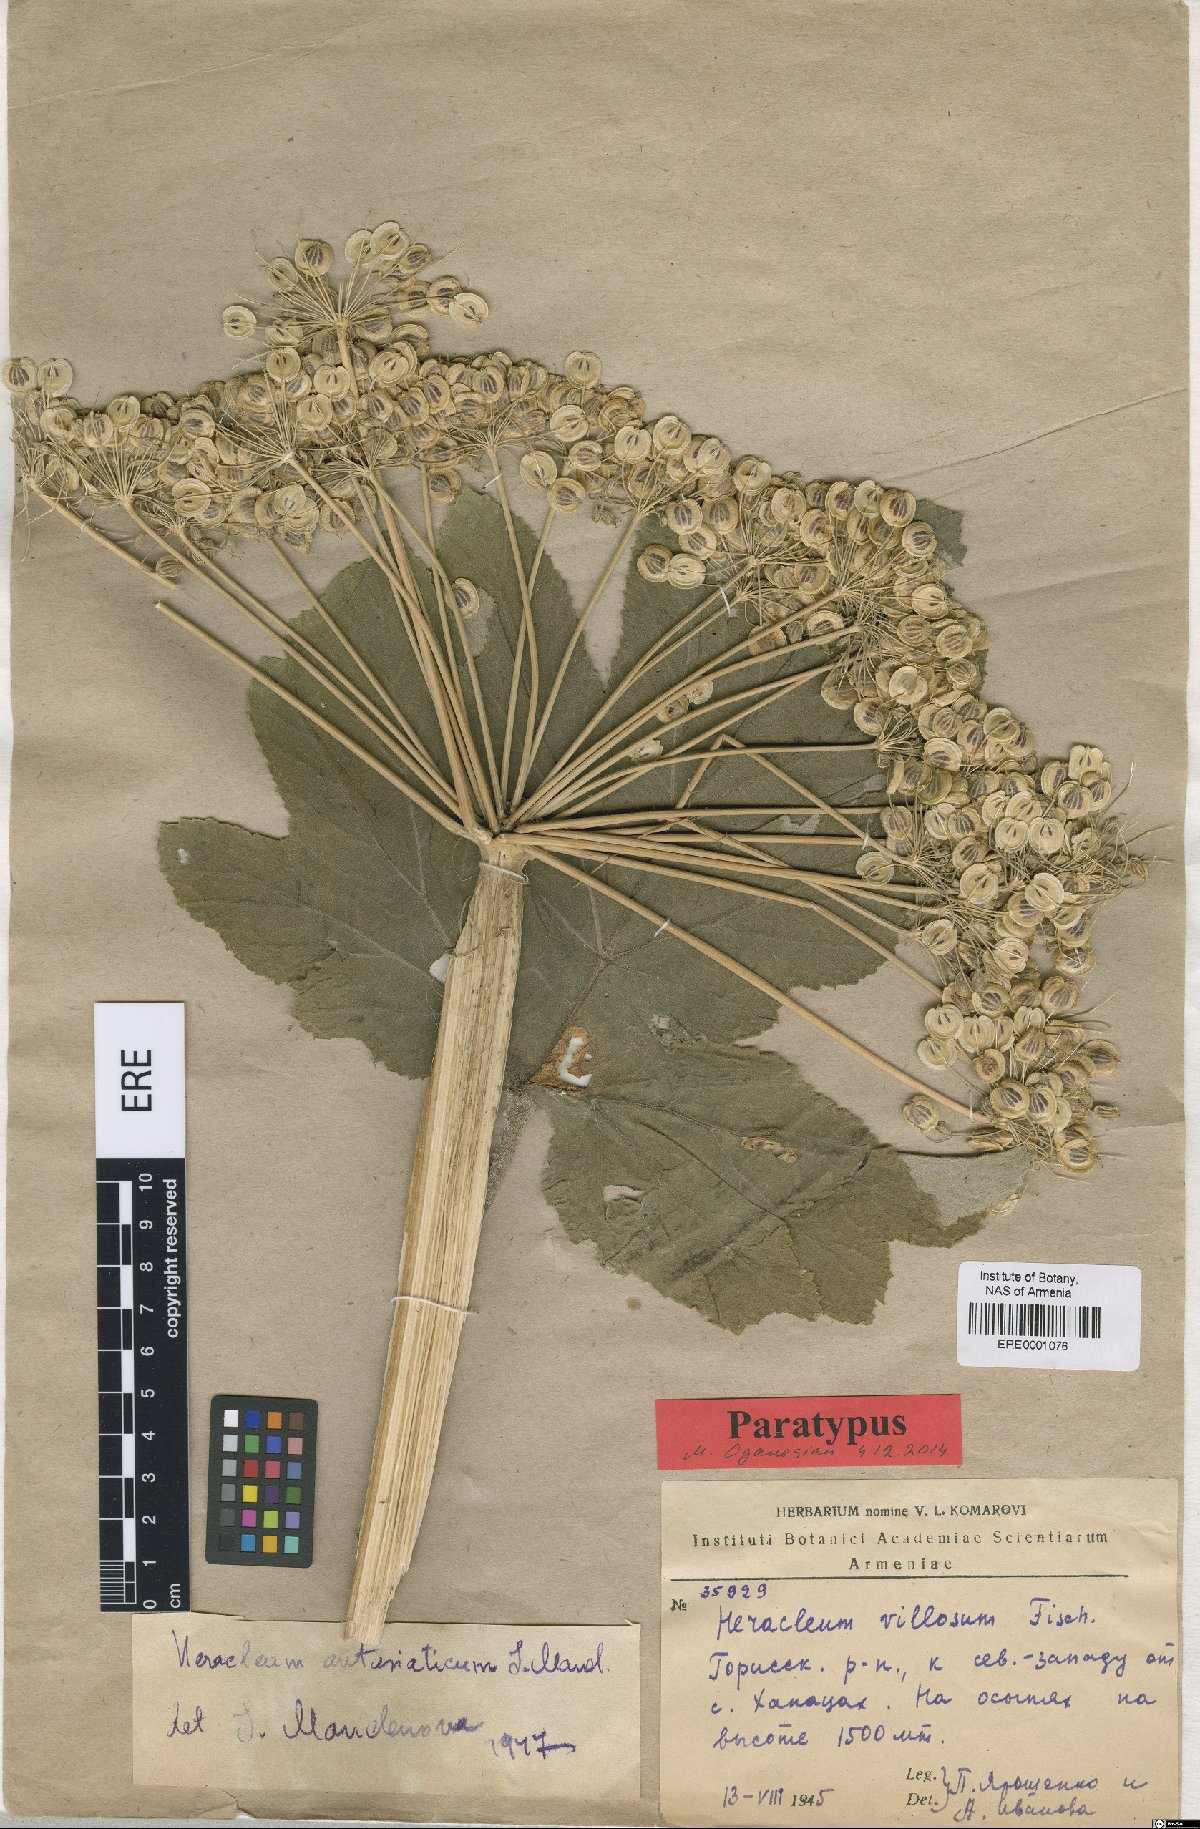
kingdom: Plantae
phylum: Tracheophyta
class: Magnoliopsida
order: Apiales
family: Apiaceae
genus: Heracleum
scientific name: Heracleum antasiaticum
